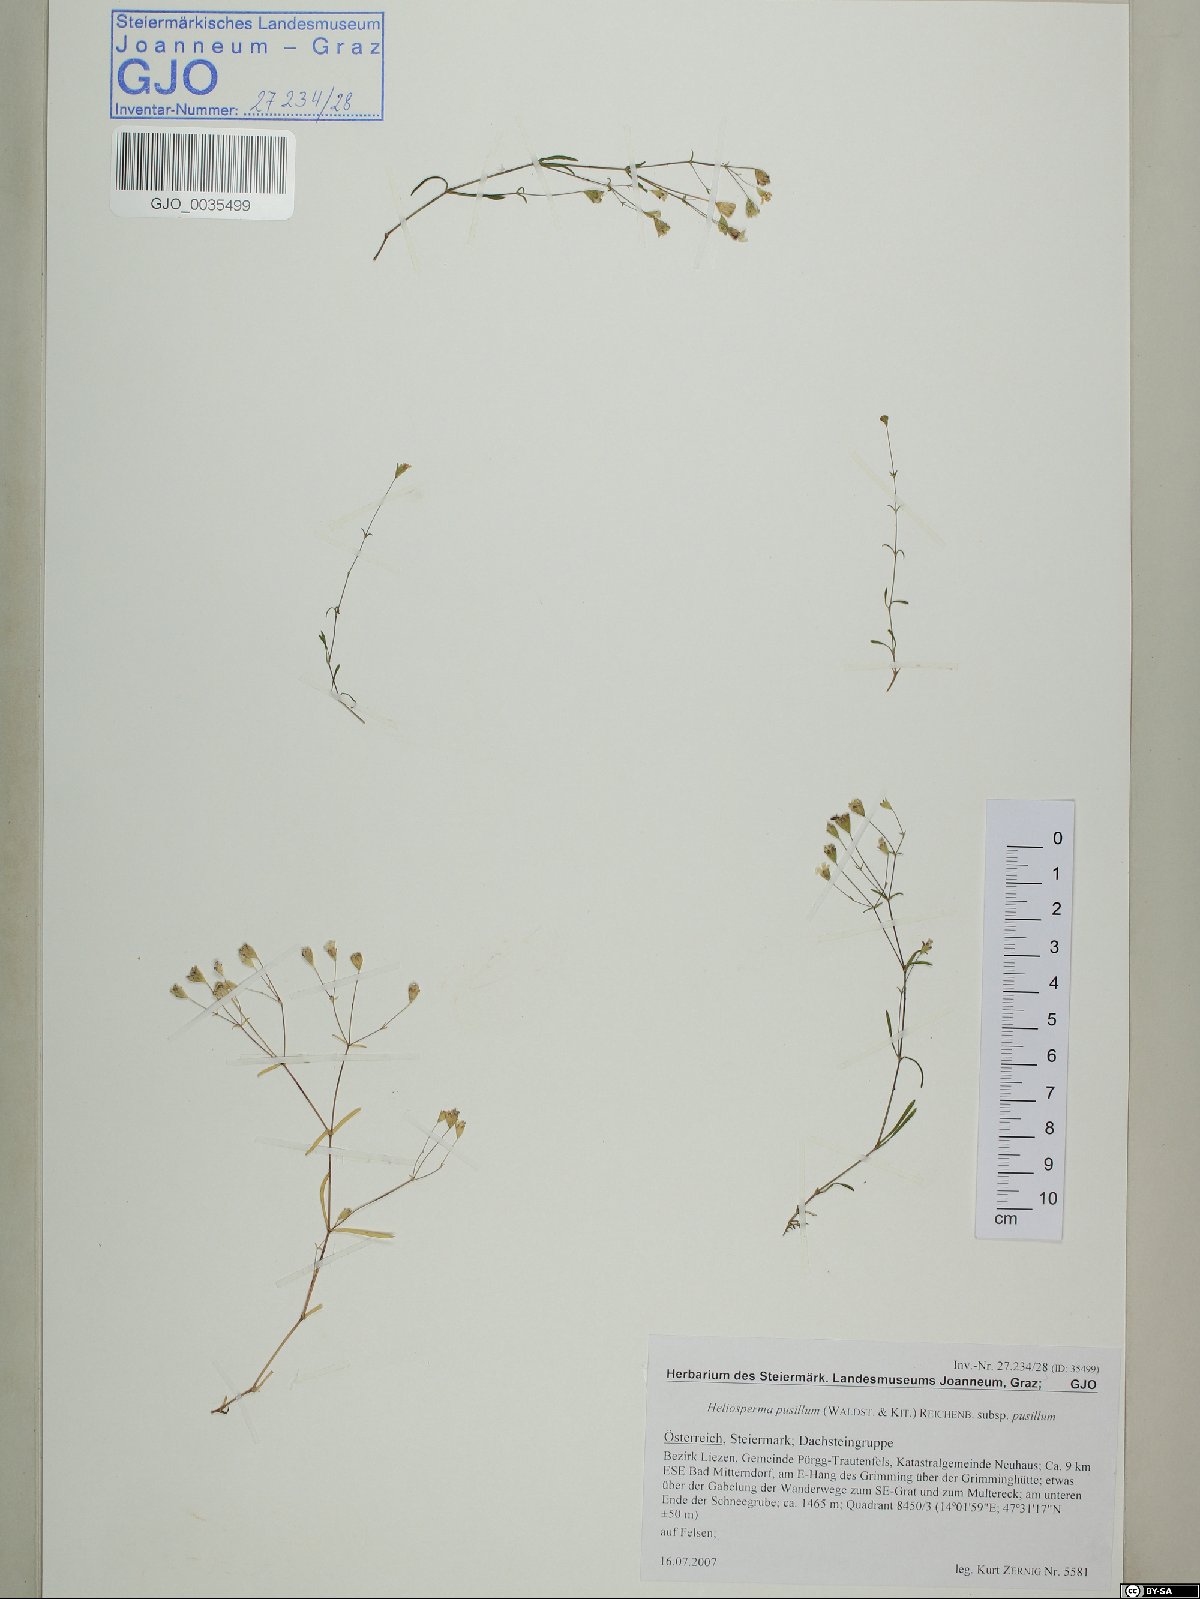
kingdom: Plantae
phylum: Tracheophyta
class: Magnoliopsida
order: Caryophyllales
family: Caryophyllaceae
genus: Heliosperma
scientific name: Heliosperma pusillum
